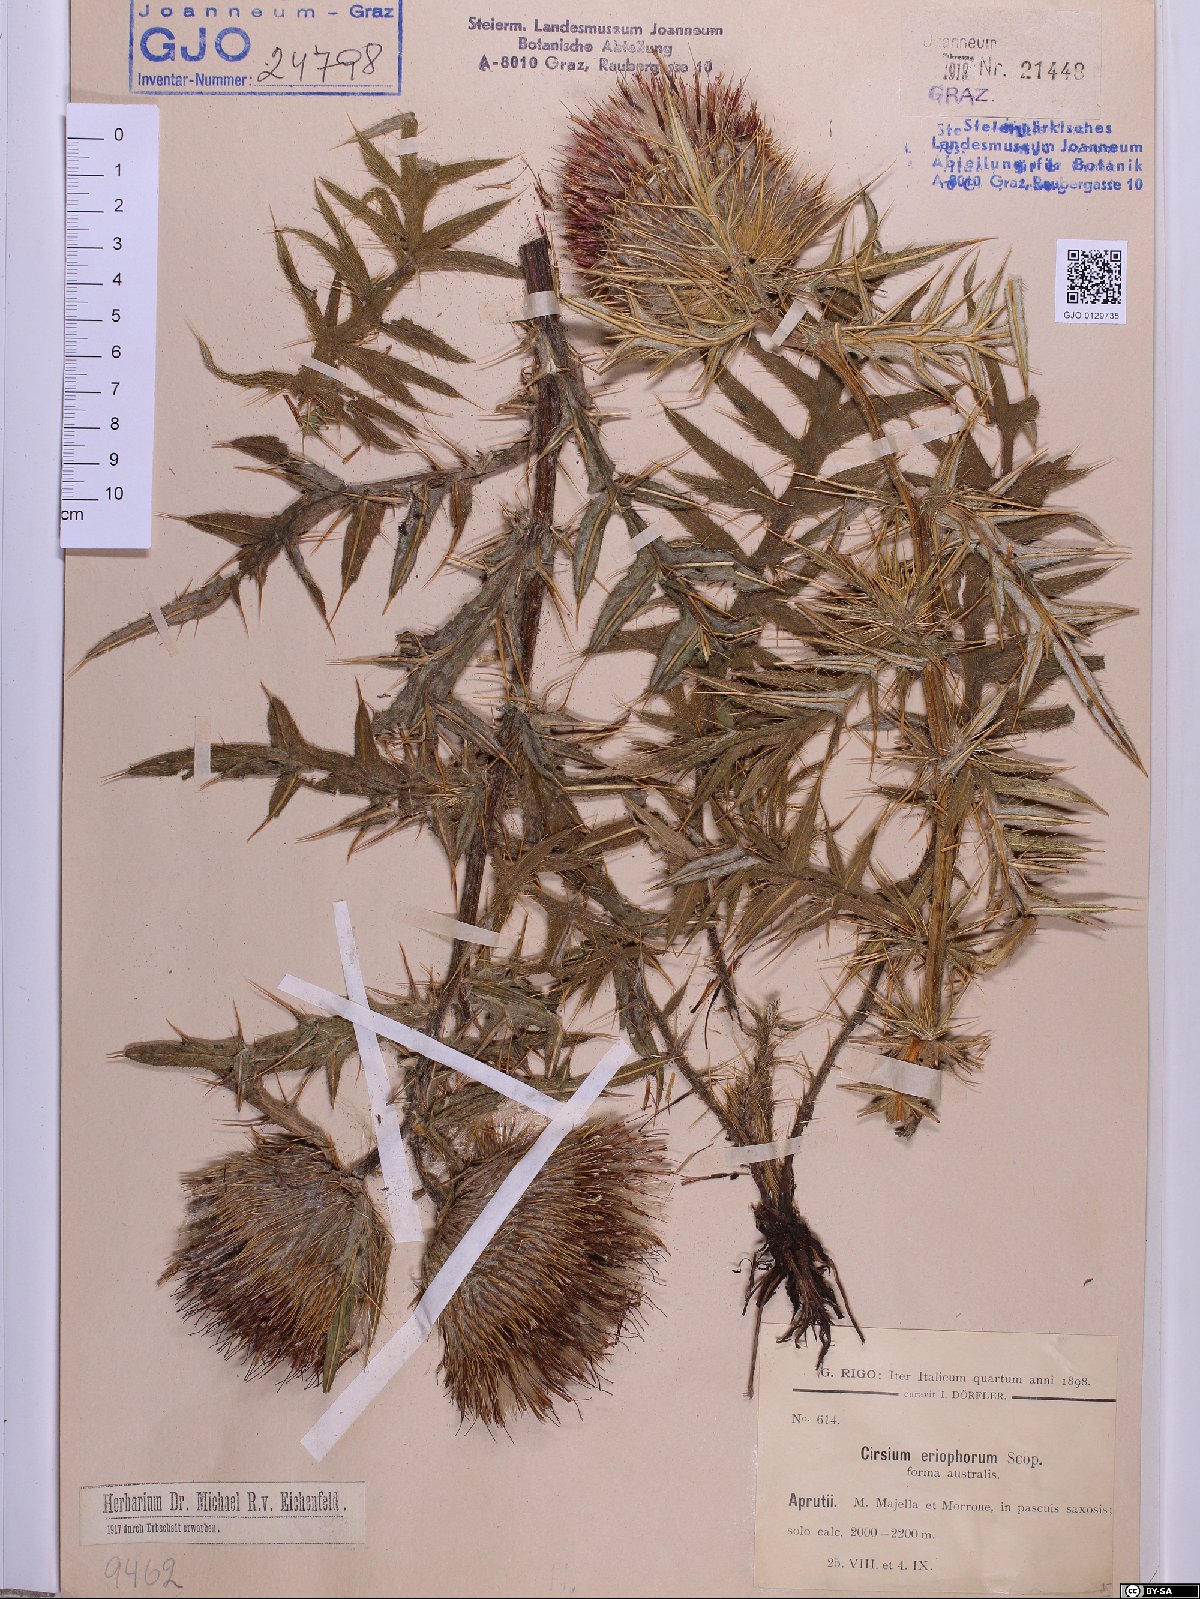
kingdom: Plantae
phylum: Tracheophyta
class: Magnoliopsida
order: Asterales
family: Asteraceae
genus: Lophiolepis
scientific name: Lophiolepis eriophora
